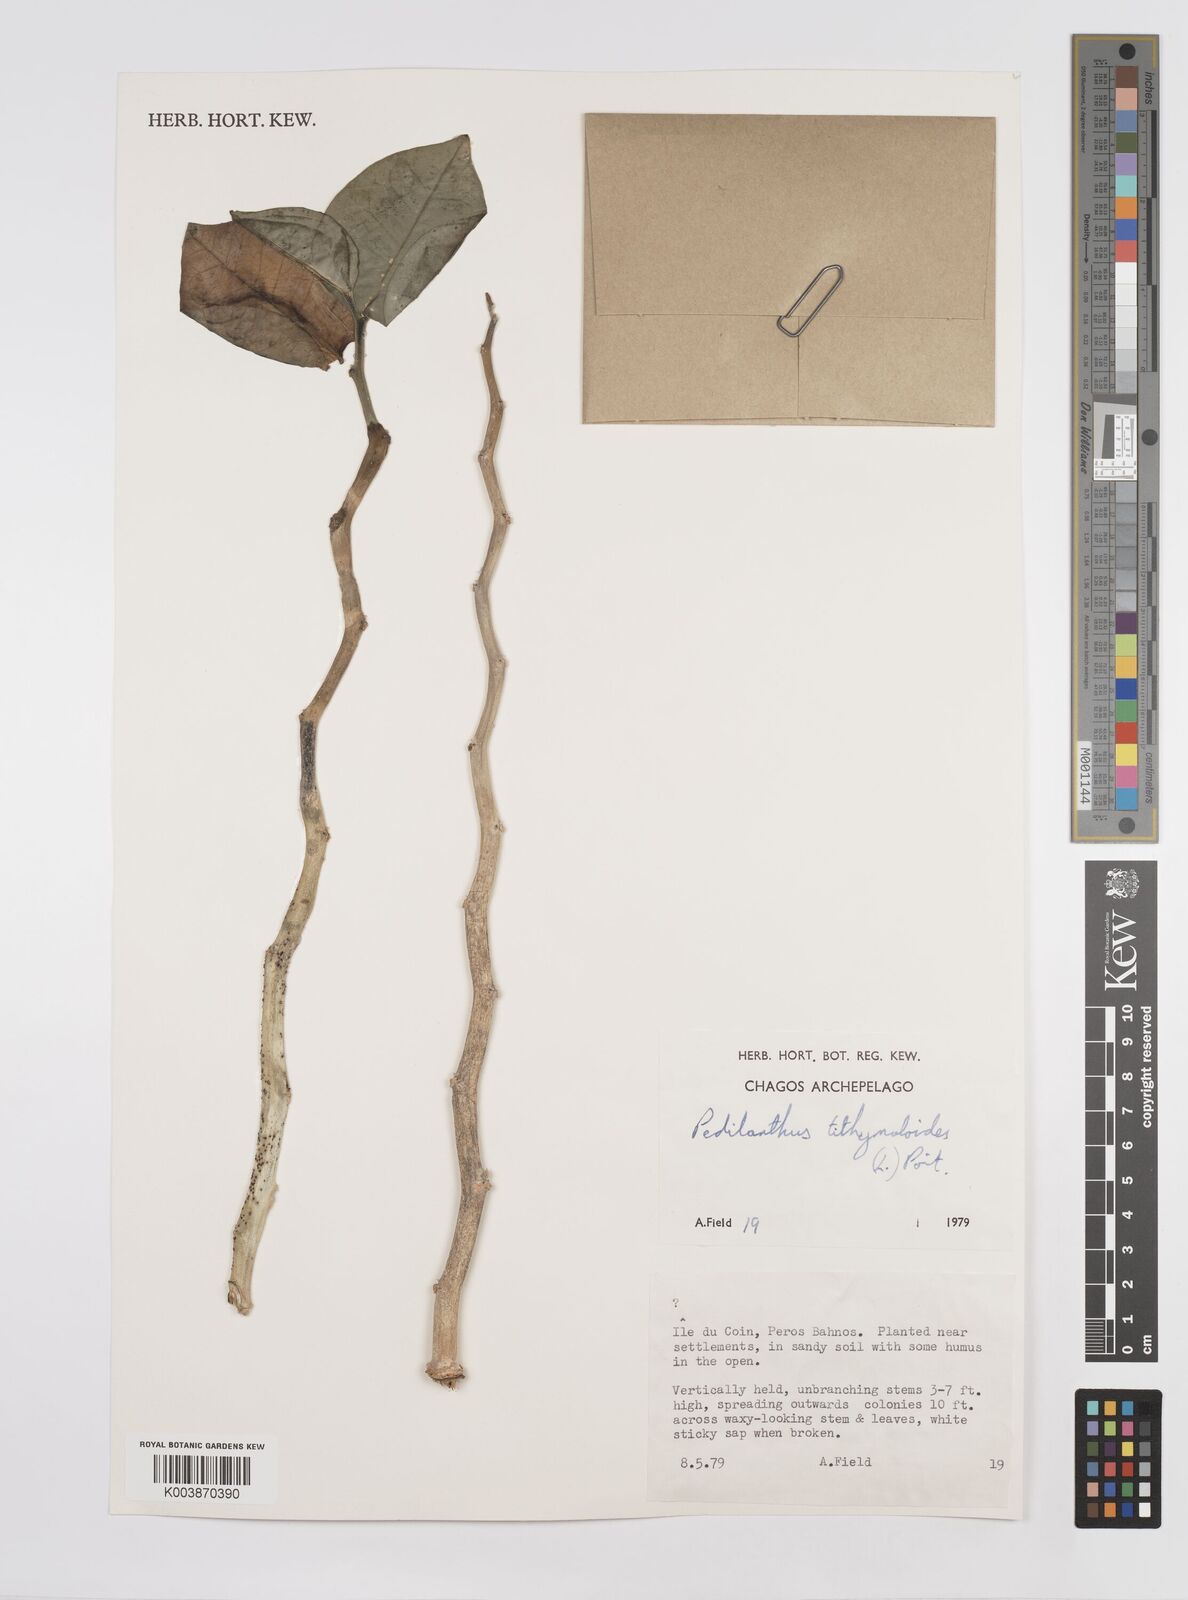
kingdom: Plantae
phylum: Tracheophyta
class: Magnoliopsida
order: Malpighiales
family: Euphorbiaceae
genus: Euphorbia
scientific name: Euphorbia tithymaloides
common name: Slipperplant
